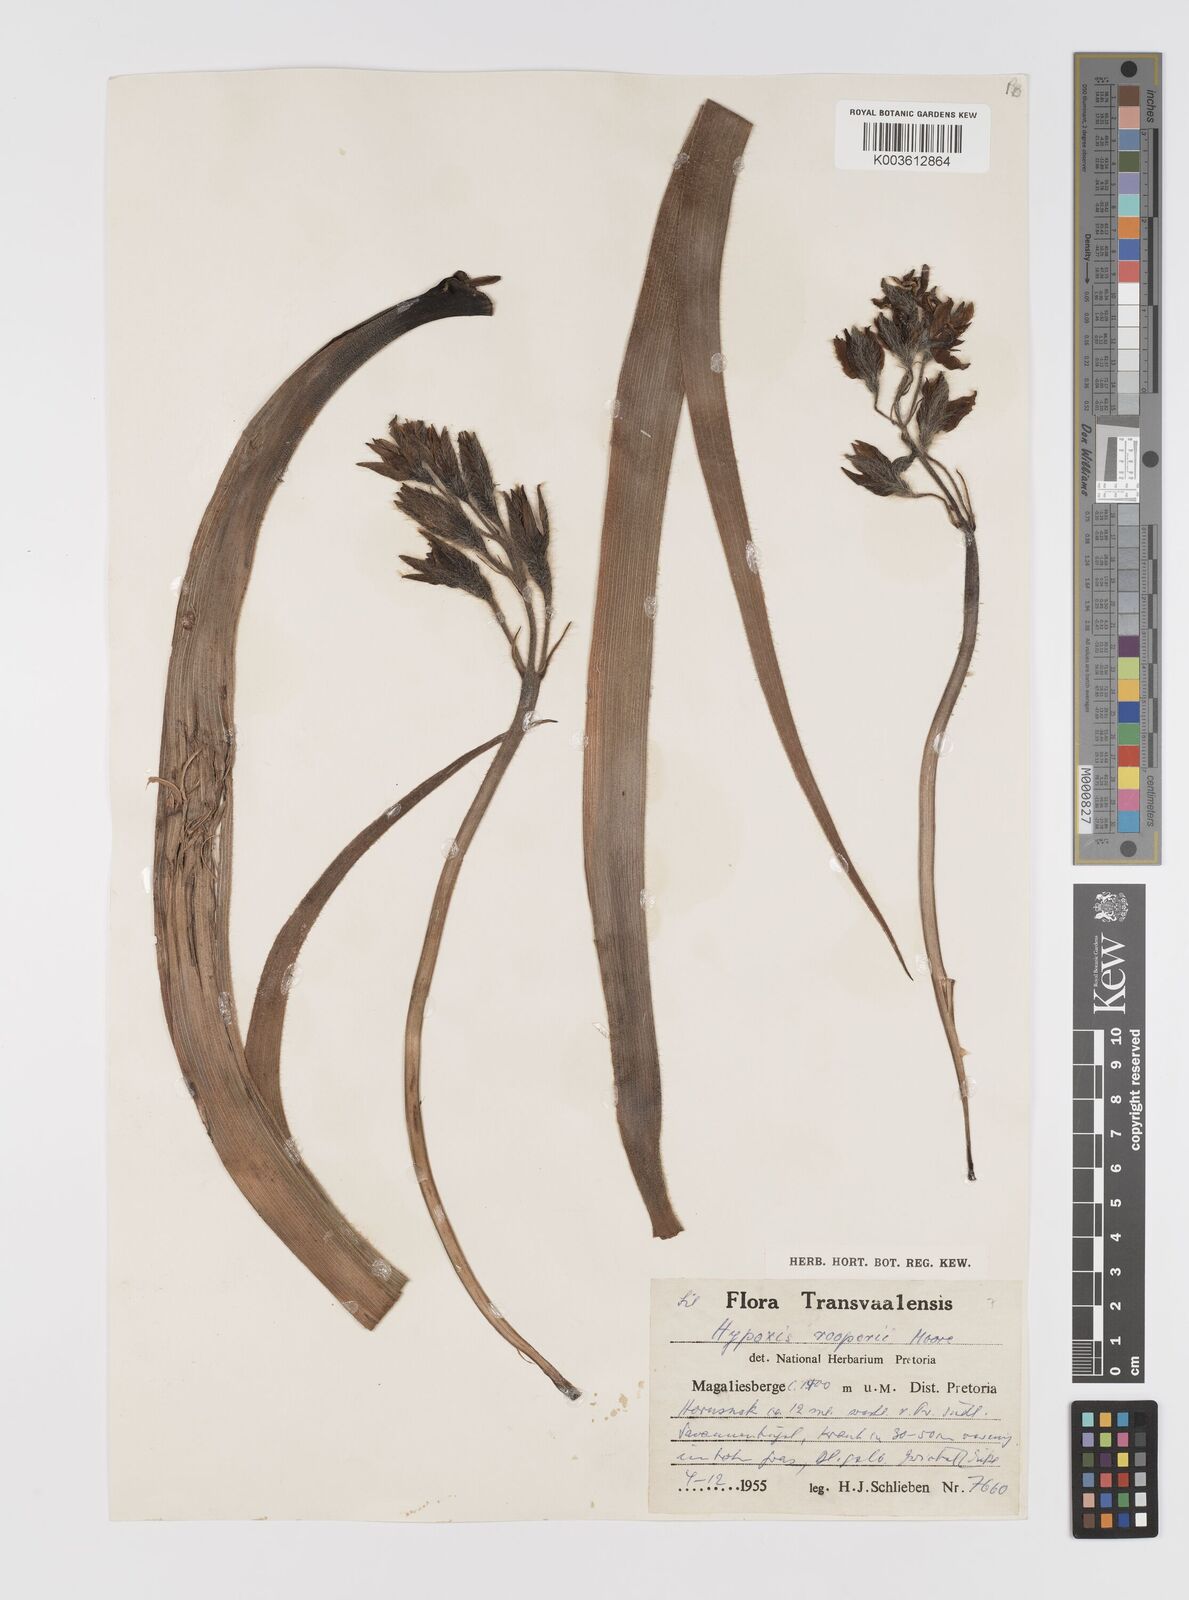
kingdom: Plantae
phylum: Tracheophyta
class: Liliopsida
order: Asparagales
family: Hypoxidaceae
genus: Hypoxis
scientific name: Hypoxis hemerocallidea
